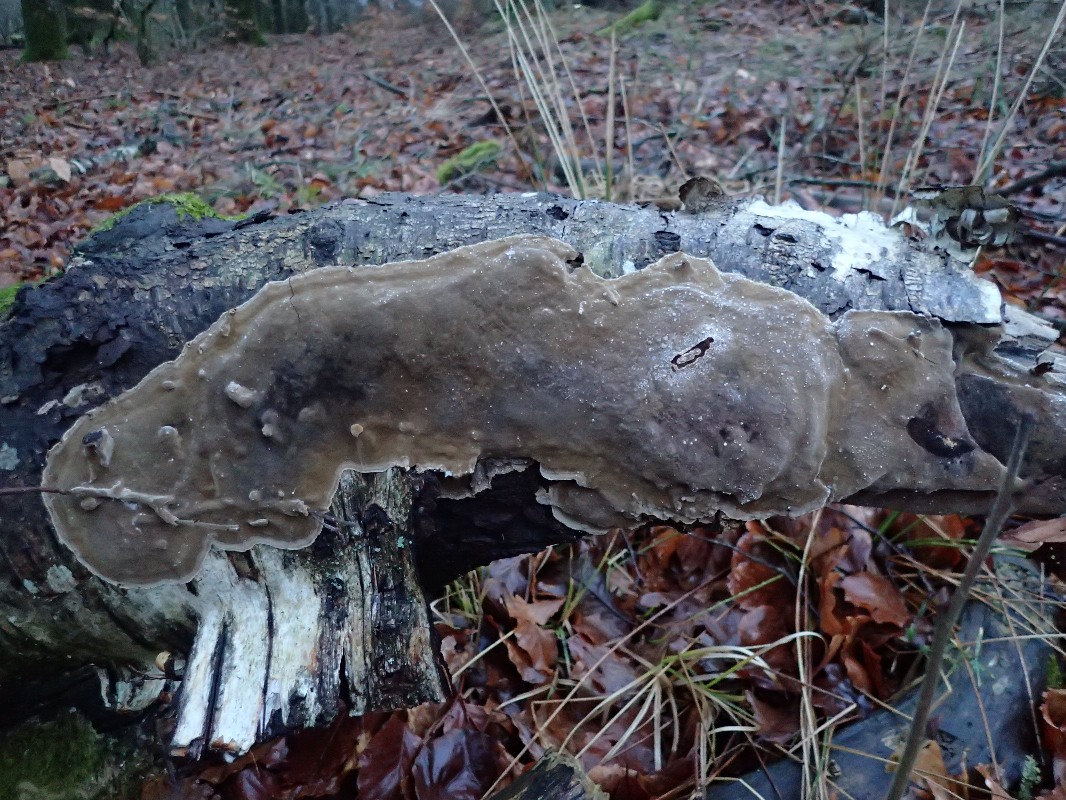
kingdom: Fungi
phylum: Basidiomycota
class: Agaricomycetes
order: Hymenochaetales
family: Hymenochaetaceae
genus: Phellinus
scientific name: Phellinus laevigatus
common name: glat ildporesvamp
